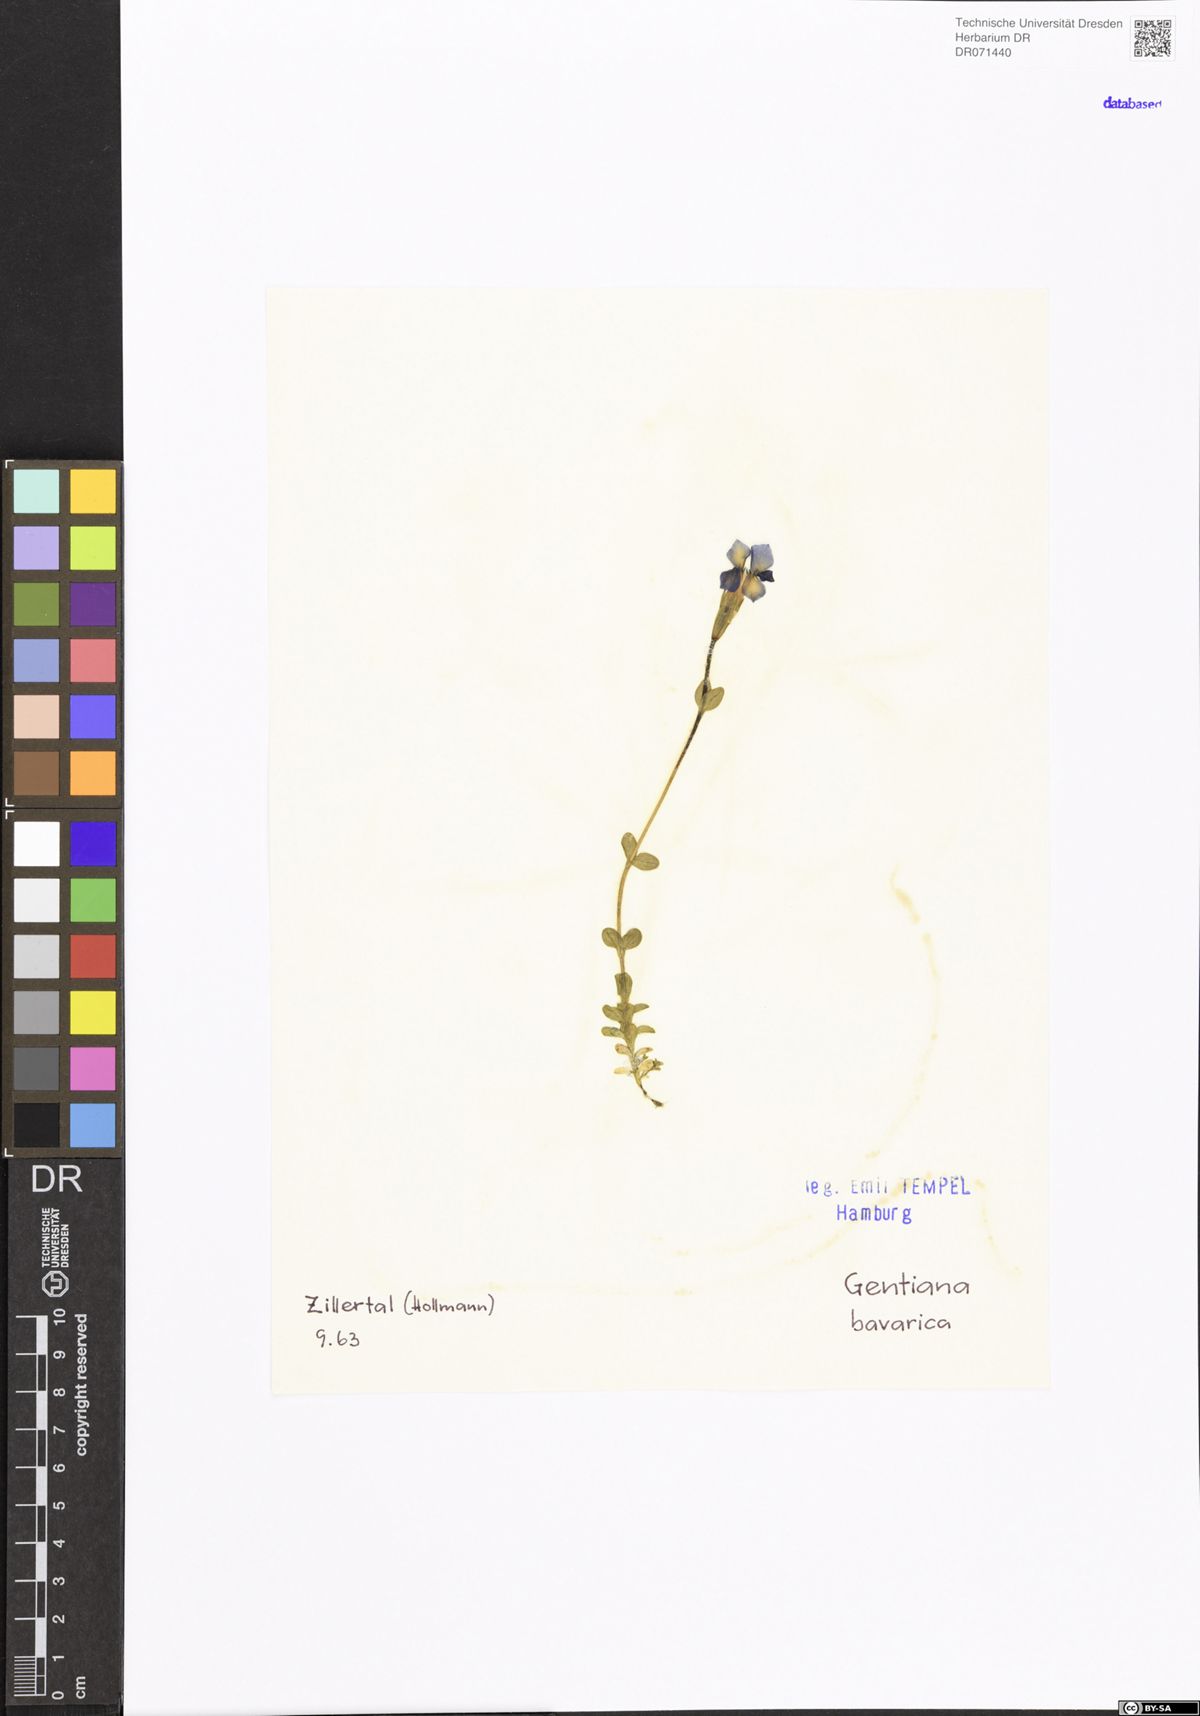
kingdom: Plantae
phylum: Tracheophyta
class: Magnoliopsida
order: Gentianales
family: Gentianaceae
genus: Gentiana
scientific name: Gentiana bavarica
